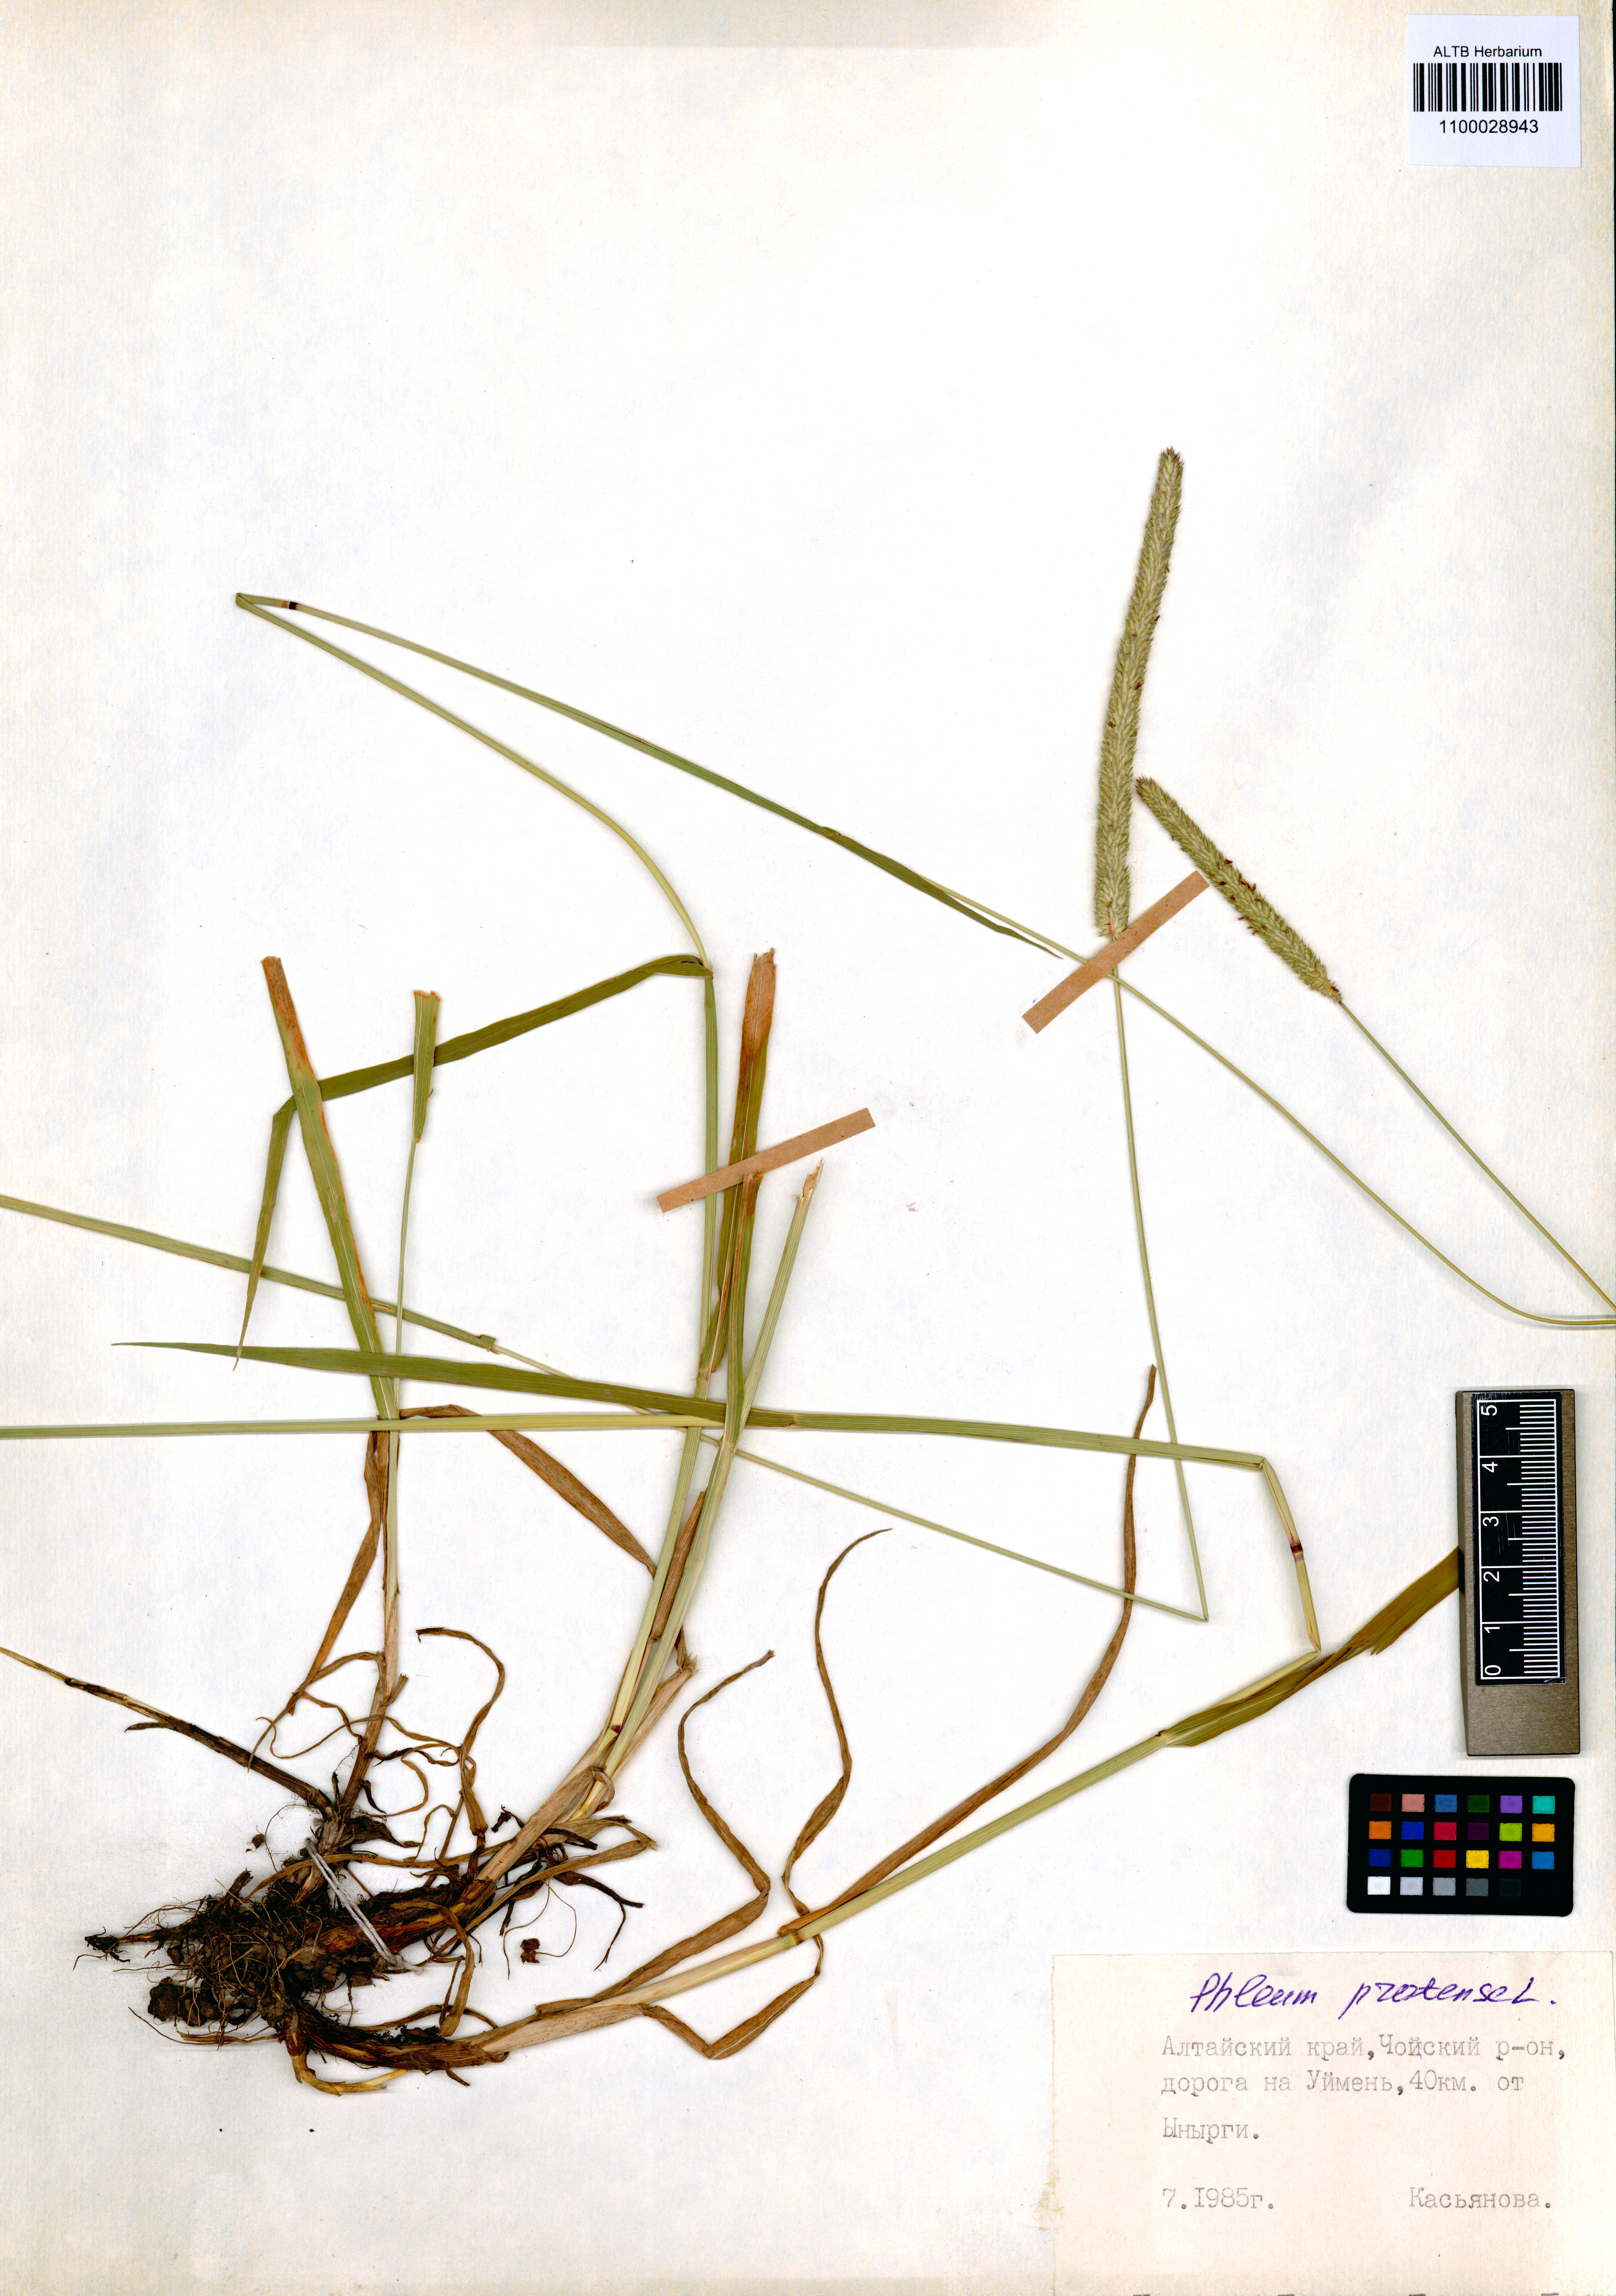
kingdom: Plantae
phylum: Tracheophyta
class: Liliopsida
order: Poales
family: Poaceae
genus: Phleum
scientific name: Phleum pratense
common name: Timothy grass
